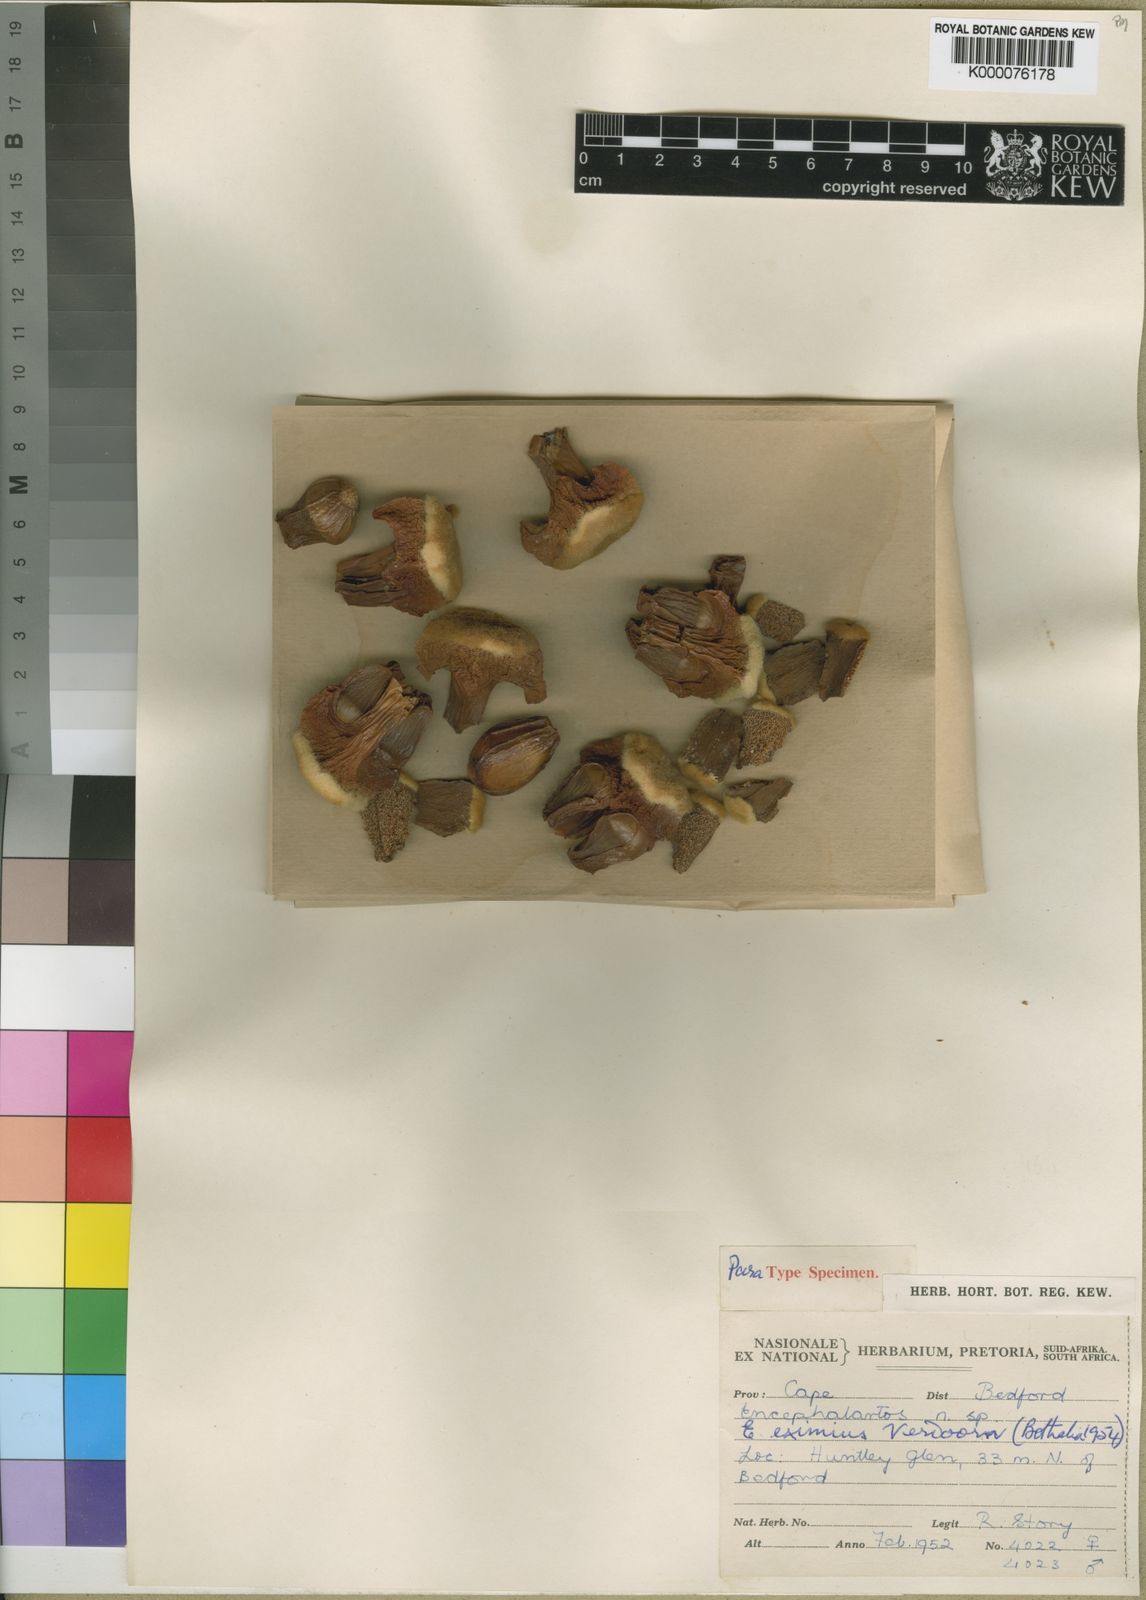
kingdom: Plantae
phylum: Tracheophyta
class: Cycadopsida
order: Cycadales
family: Zamiaceae
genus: Encephalartos
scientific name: Encephalartos cycadifolius
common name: Winterberg cycad
